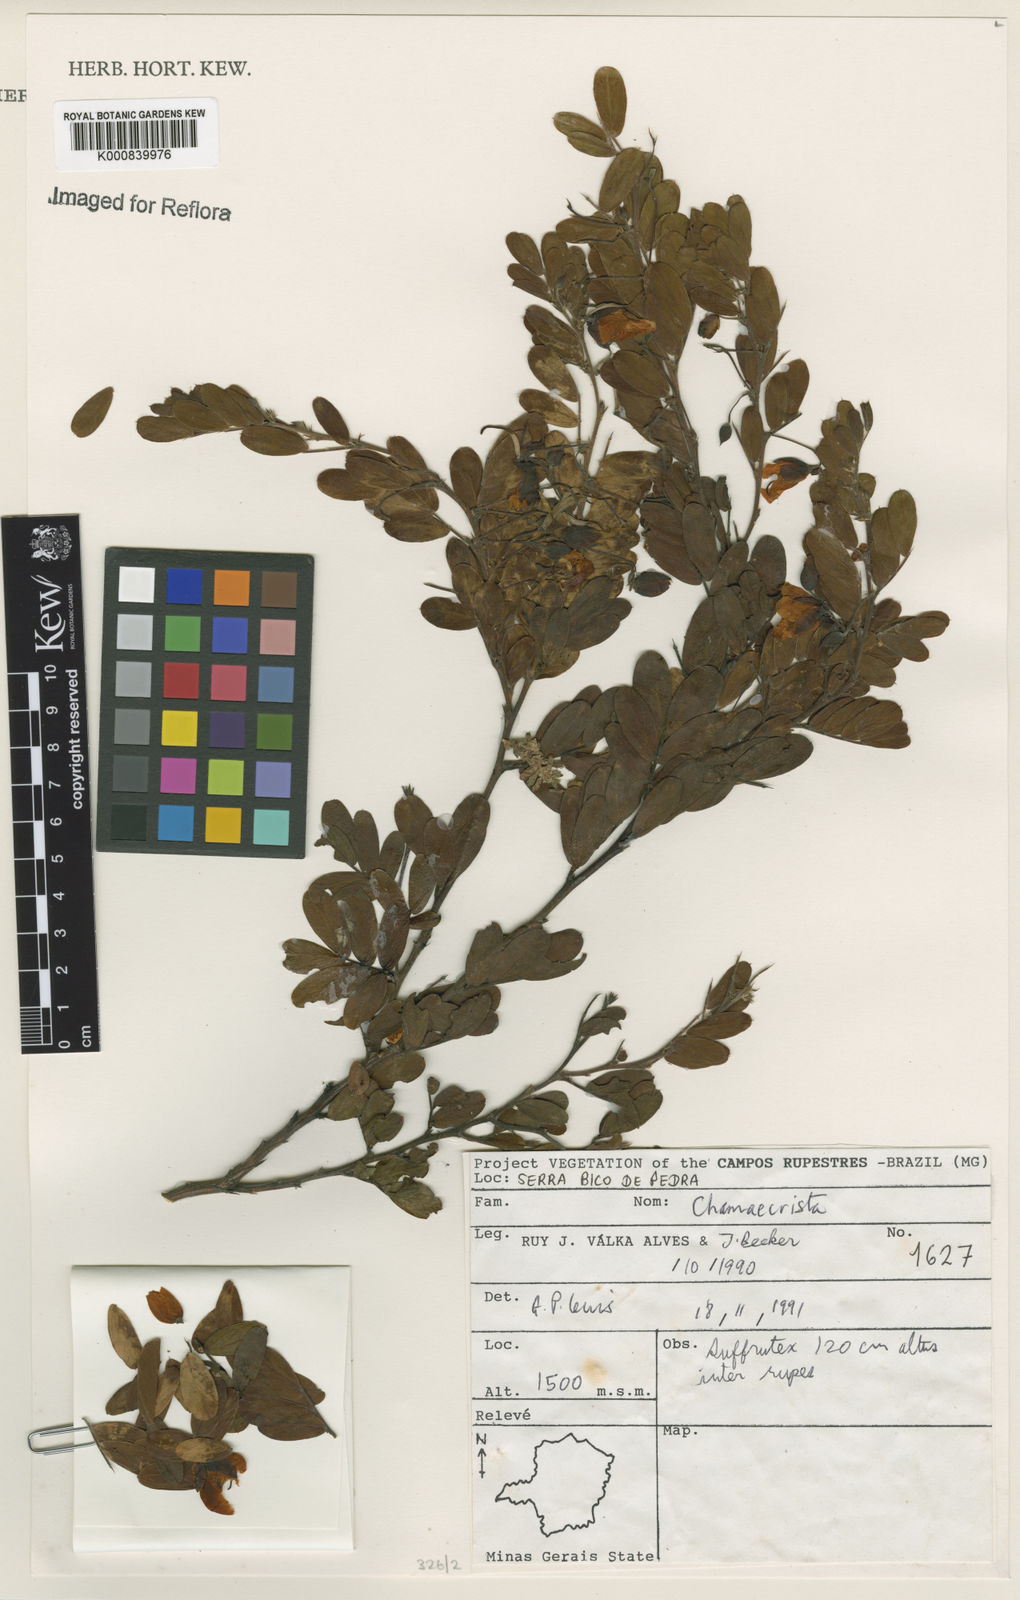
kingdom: Plantae
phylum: Tracheophyta
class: Magnoliopsida
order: Fabales
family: Fabaceae
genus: Chamaecrista
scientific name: Chamaecrista
